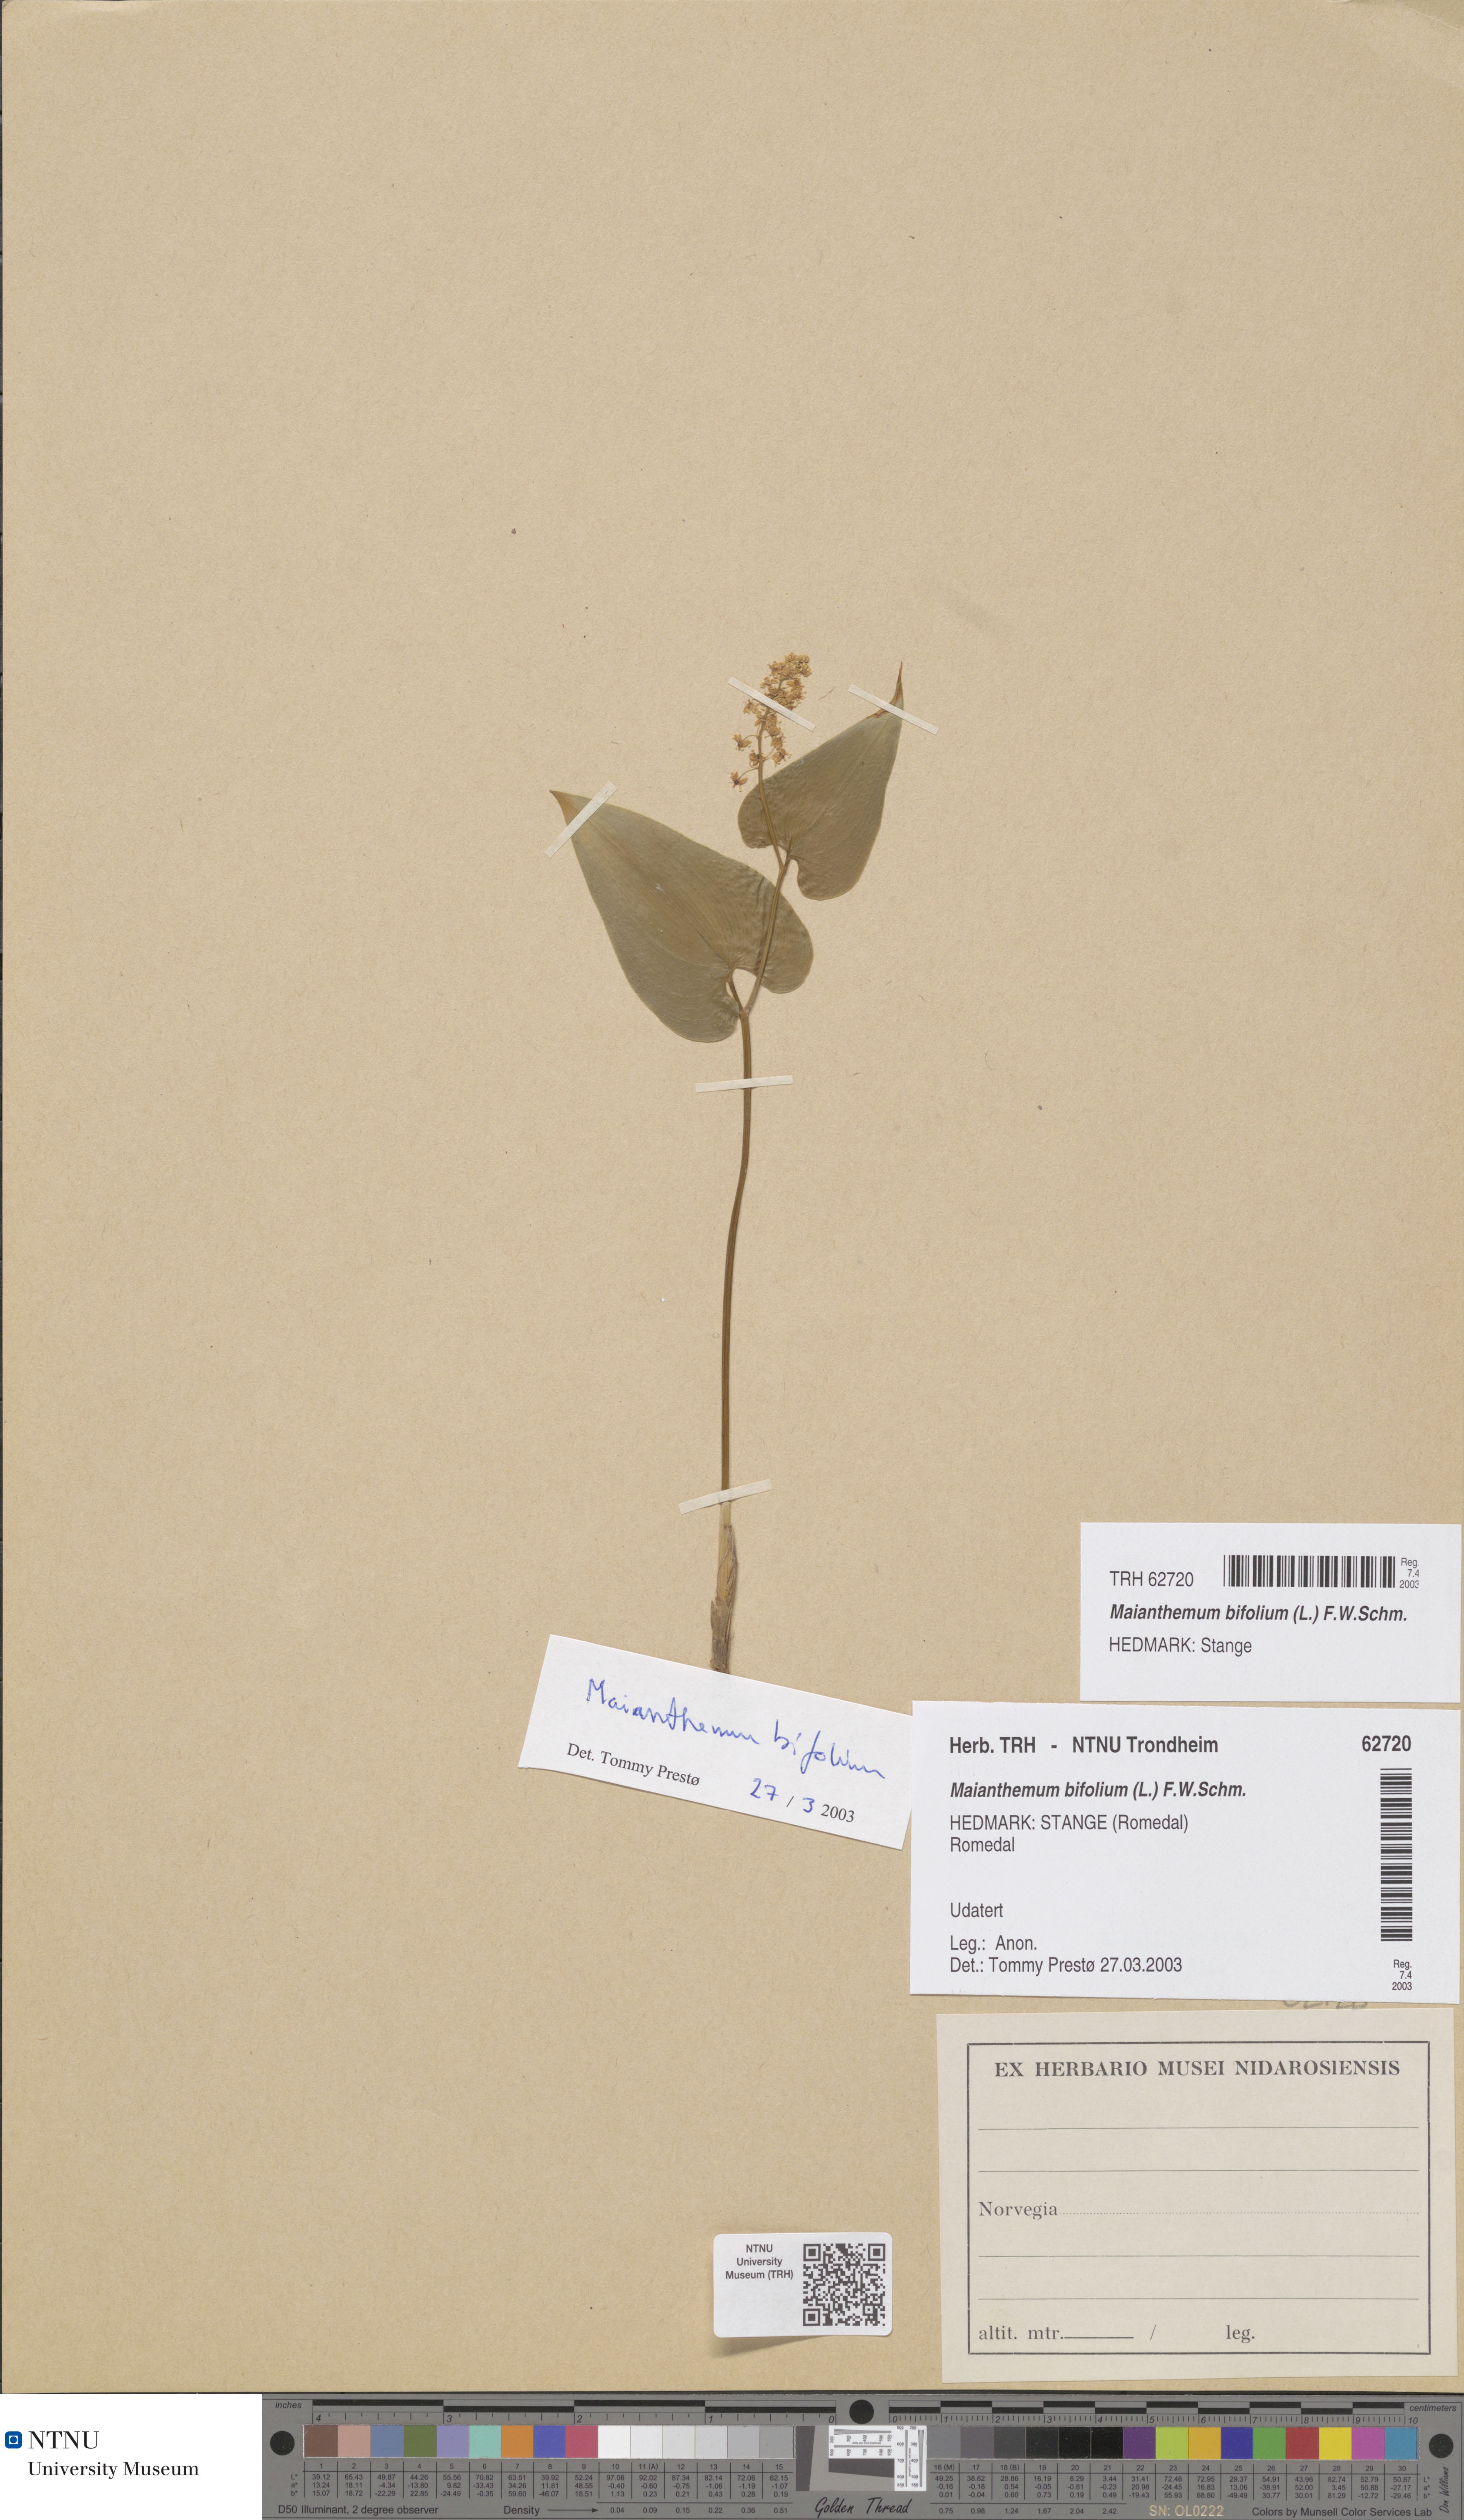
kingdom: Plantae
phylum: Tracheophyta
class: Liliopsida
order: Asparagales
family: Asparagaceae
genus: Maianthemum
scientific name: Maianthemum bifolium
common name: May lily
